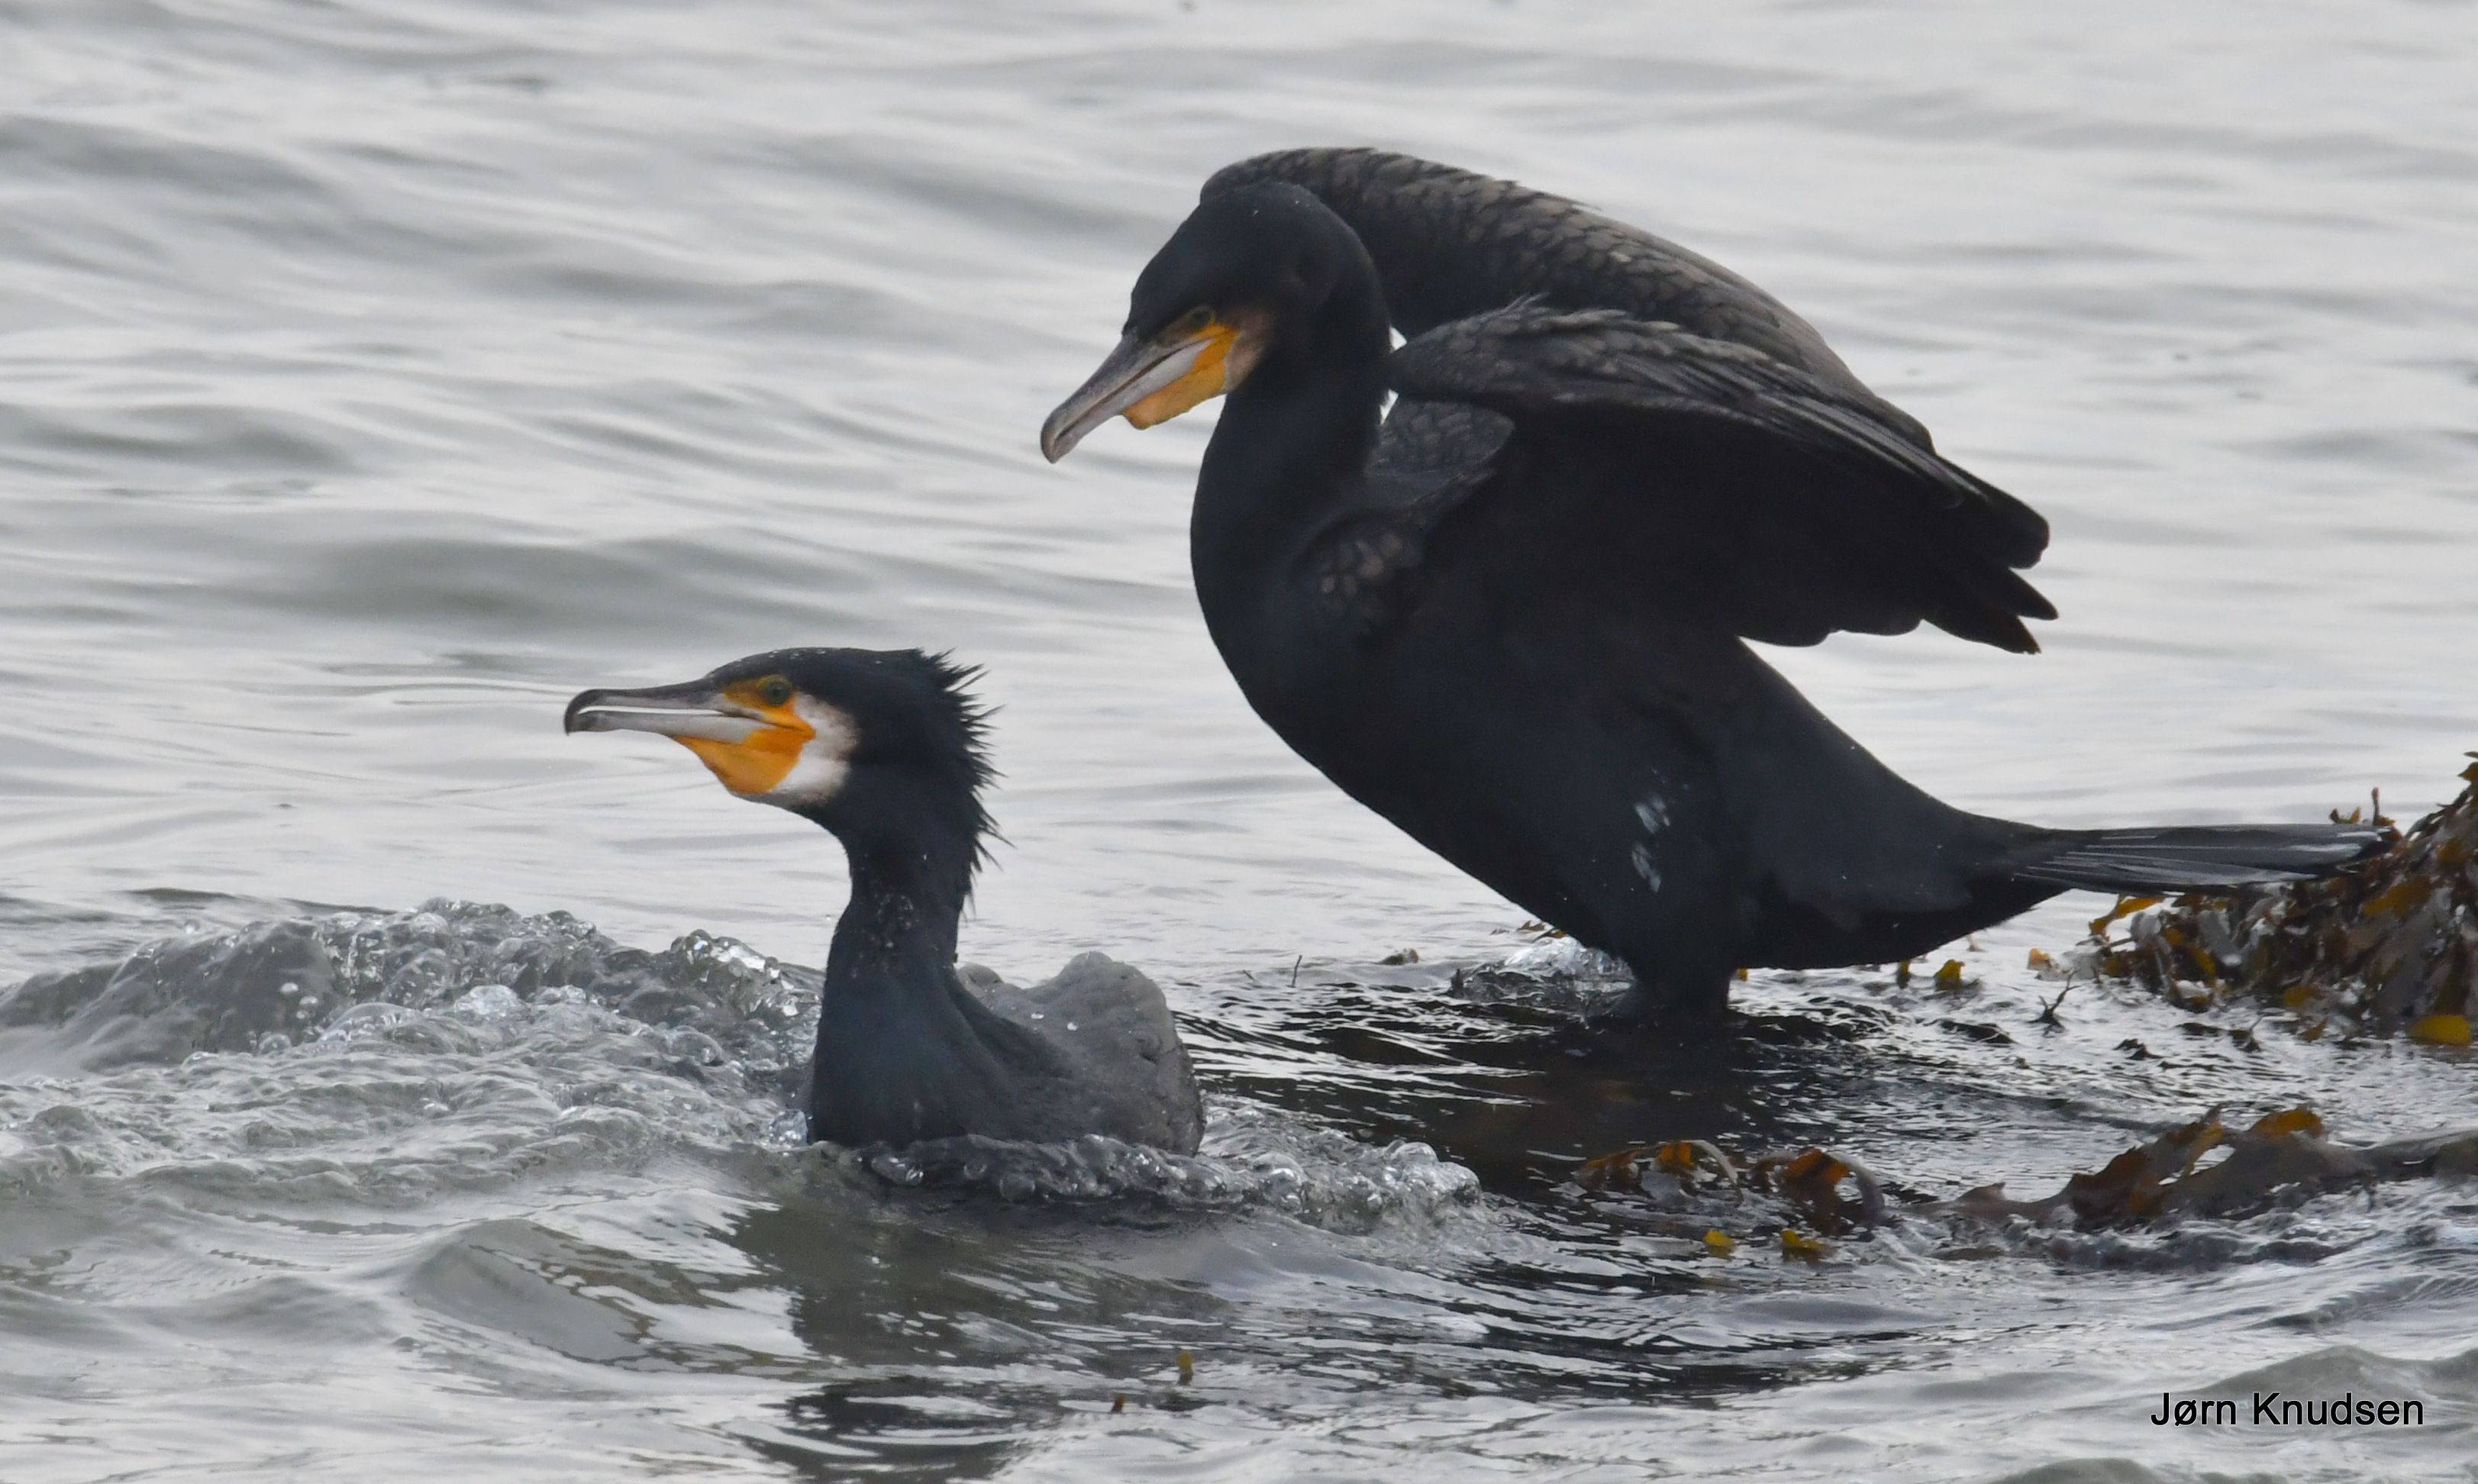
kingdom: Animalia
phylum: Chordata
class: Aves
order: Suliformes
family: Phalacrocoracidae
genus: Phalacrocorax
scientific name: Phalacrocorax carbo
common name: Skarv
